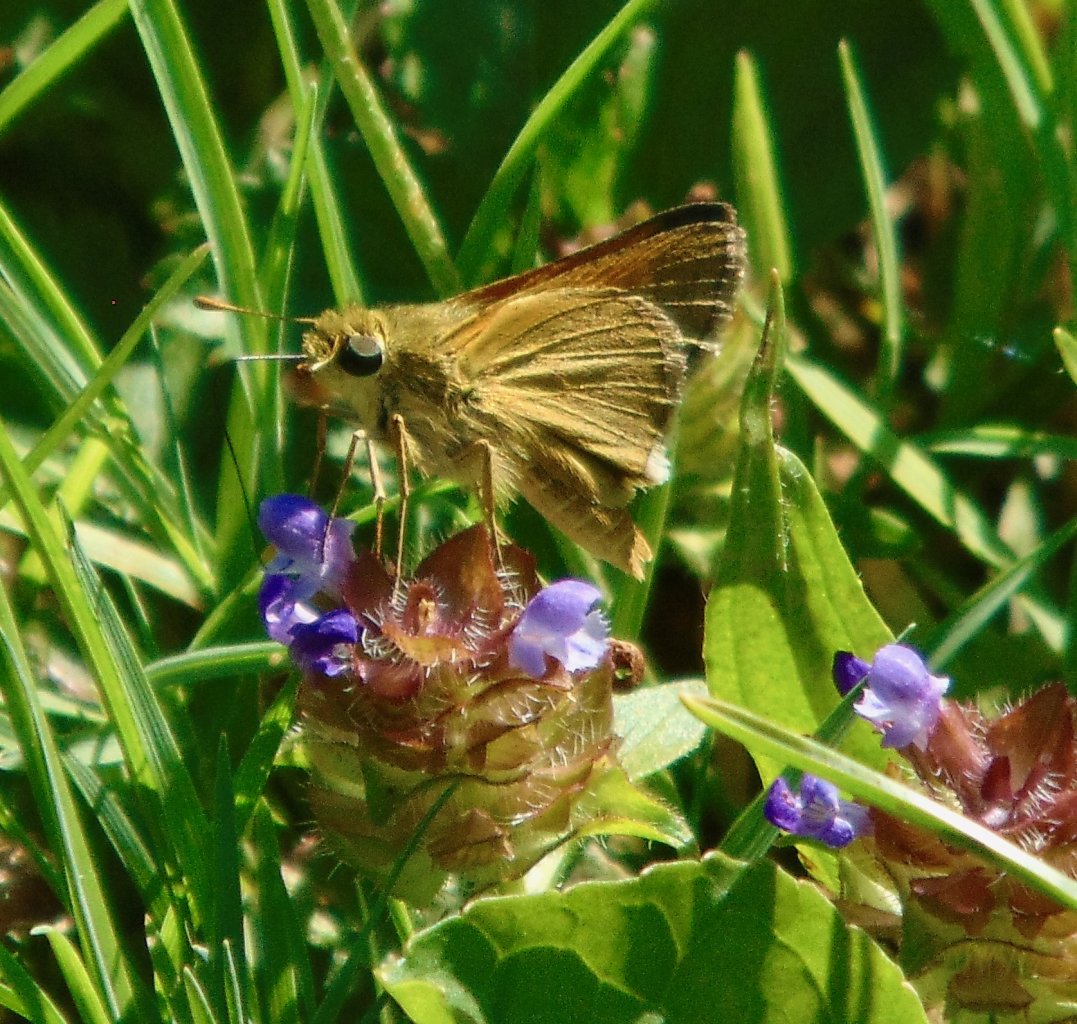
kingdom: Animalia
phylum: Arthropoda
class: Insecta
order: Lepidoptera
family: Hesperiidae
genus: Polites
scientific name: Polites themistocles
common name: Tawny-edged Skipper
